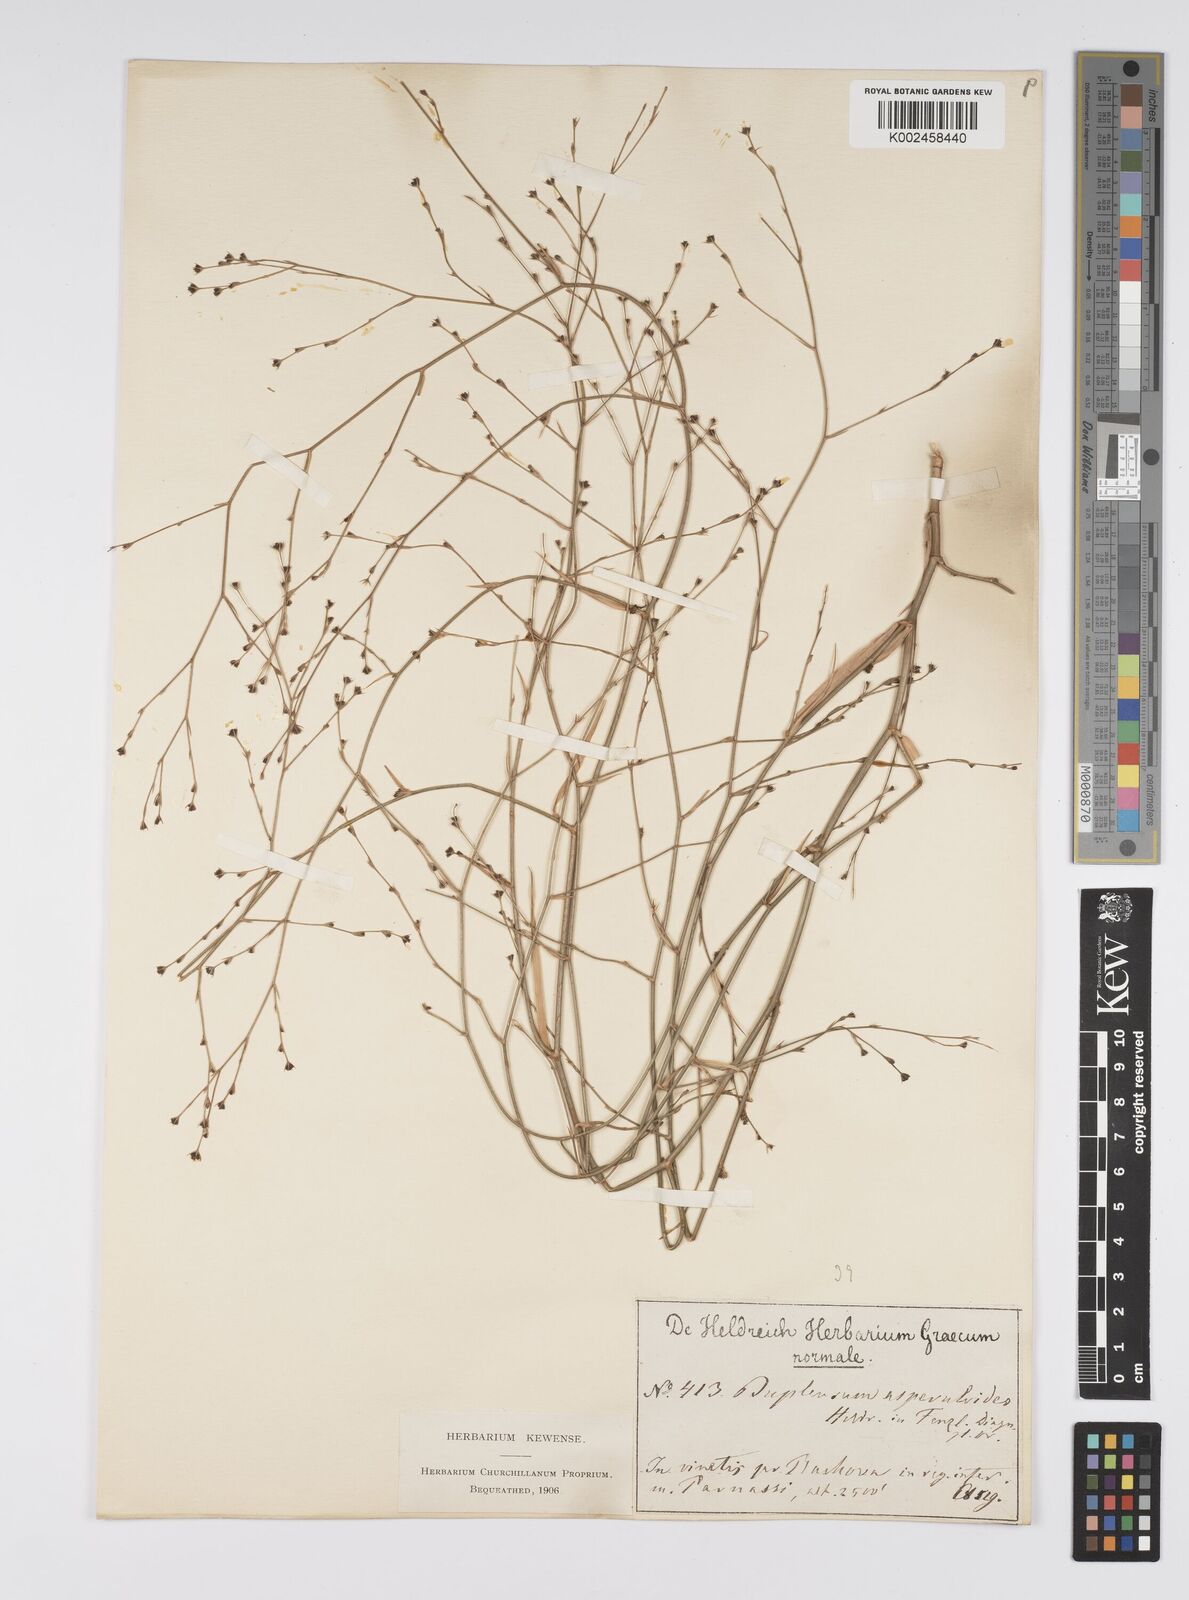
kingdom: Plantae
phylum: Tracheophyta
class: Magnoliopsida
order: Apiales
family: Apiaceae
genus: Bupleurum
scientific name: Bupleurum asperuloides
